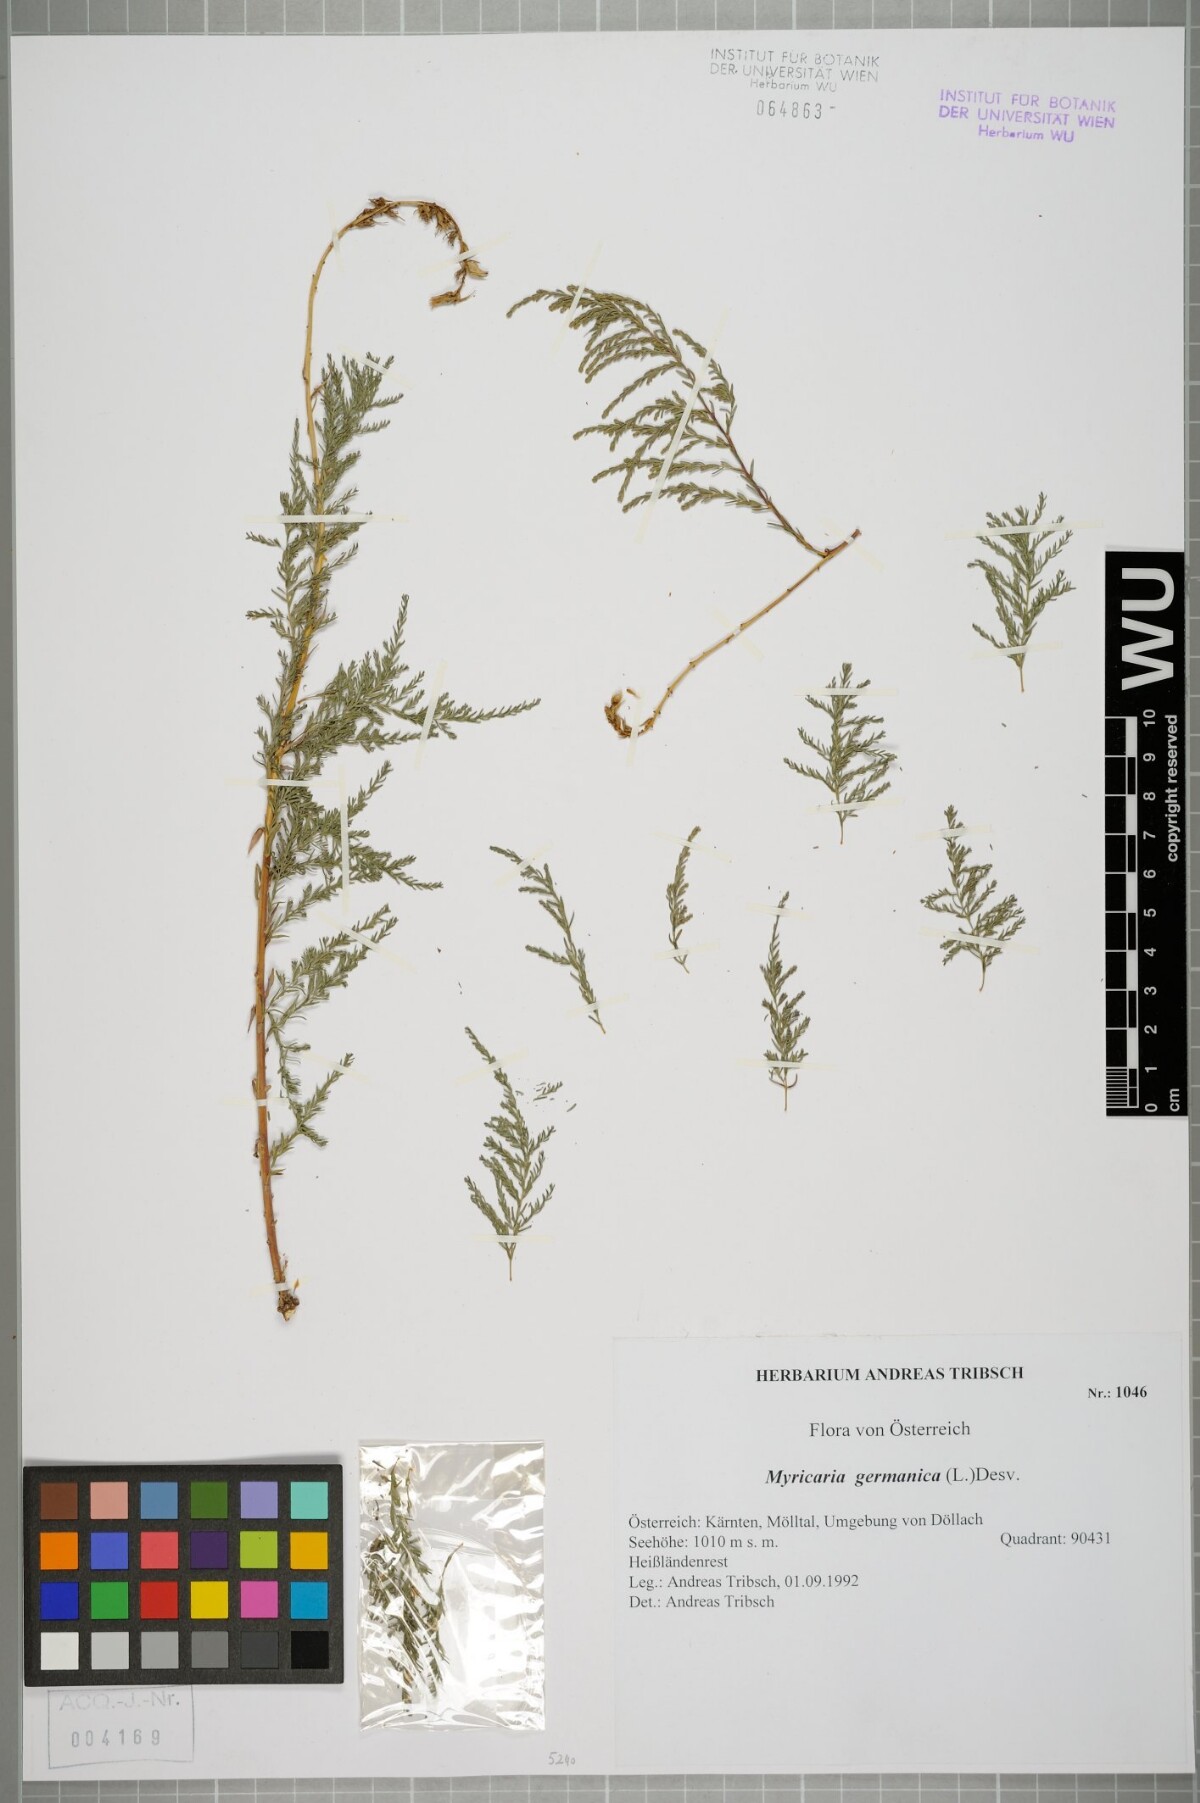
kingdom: Plantae
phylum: Tracheophyta
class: Magnoliopsida
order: Caryophyllales
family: Tamaricaceae
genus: Myricaria
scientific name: Myricaria germanica
